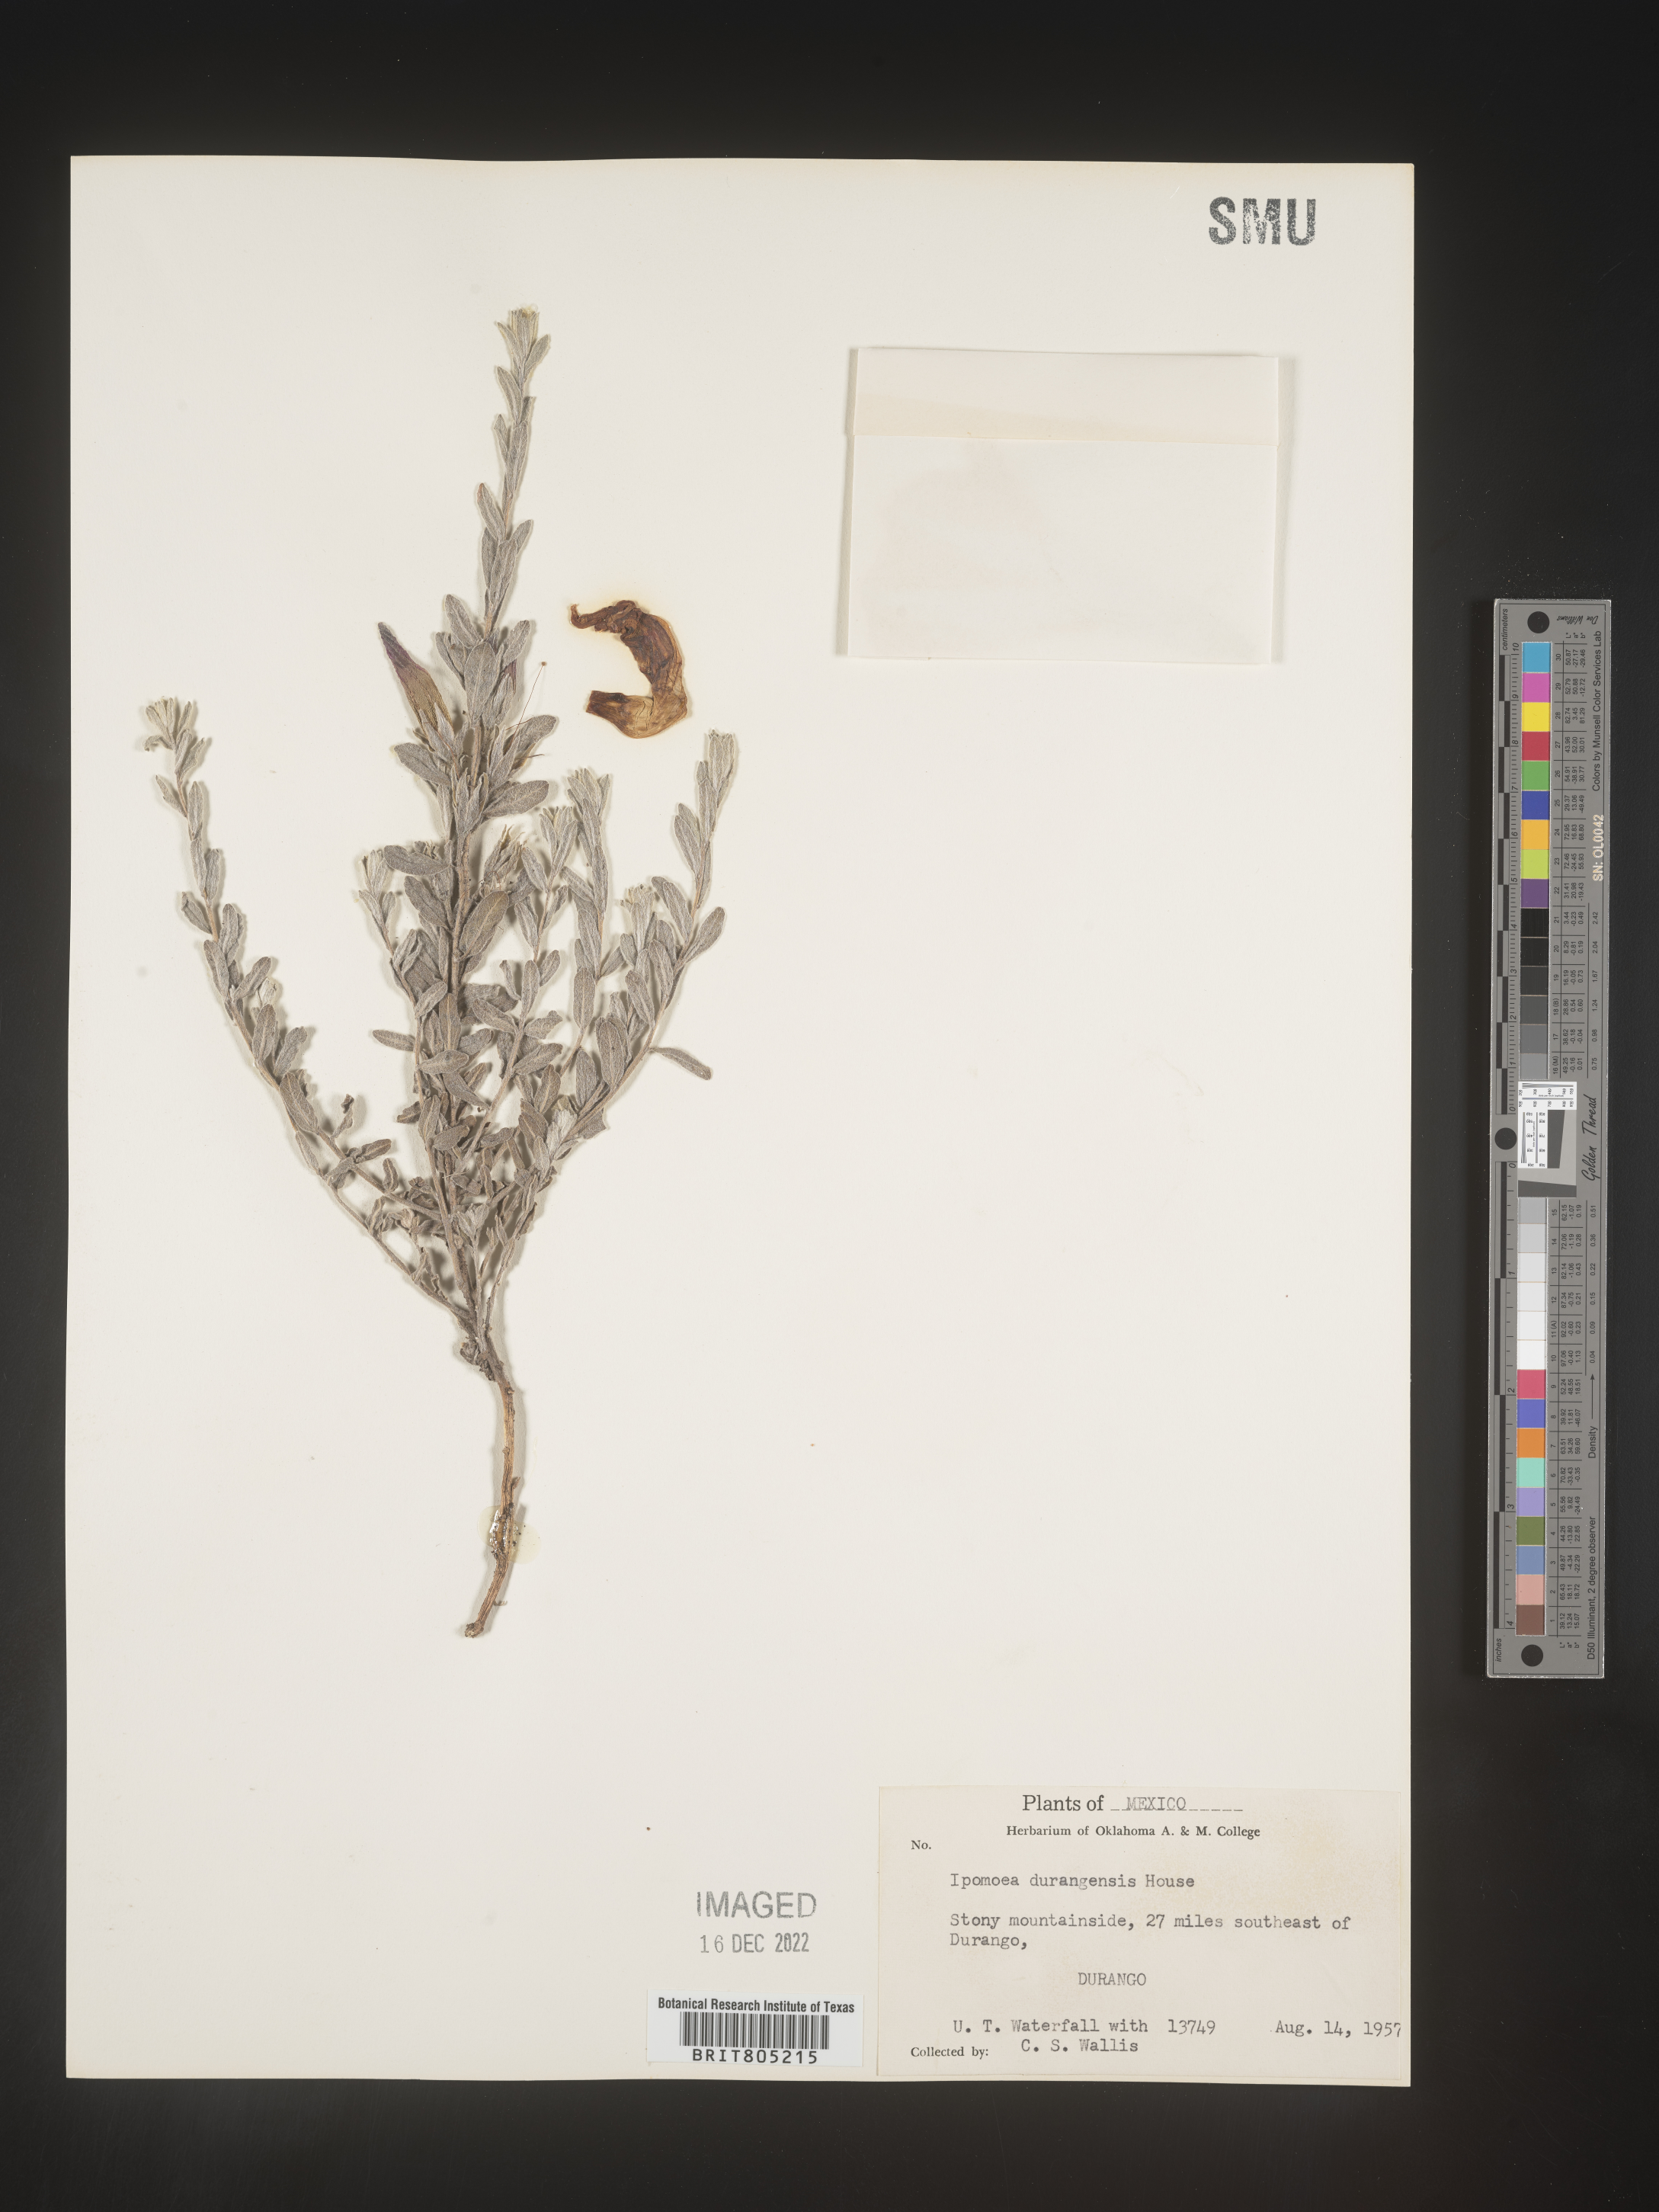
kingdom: Plantae
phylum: Tracheophyta
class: Magnoliopsida
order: Solanales
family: Convolvulaceae
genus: Ipomoea
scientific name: Ipomoea
